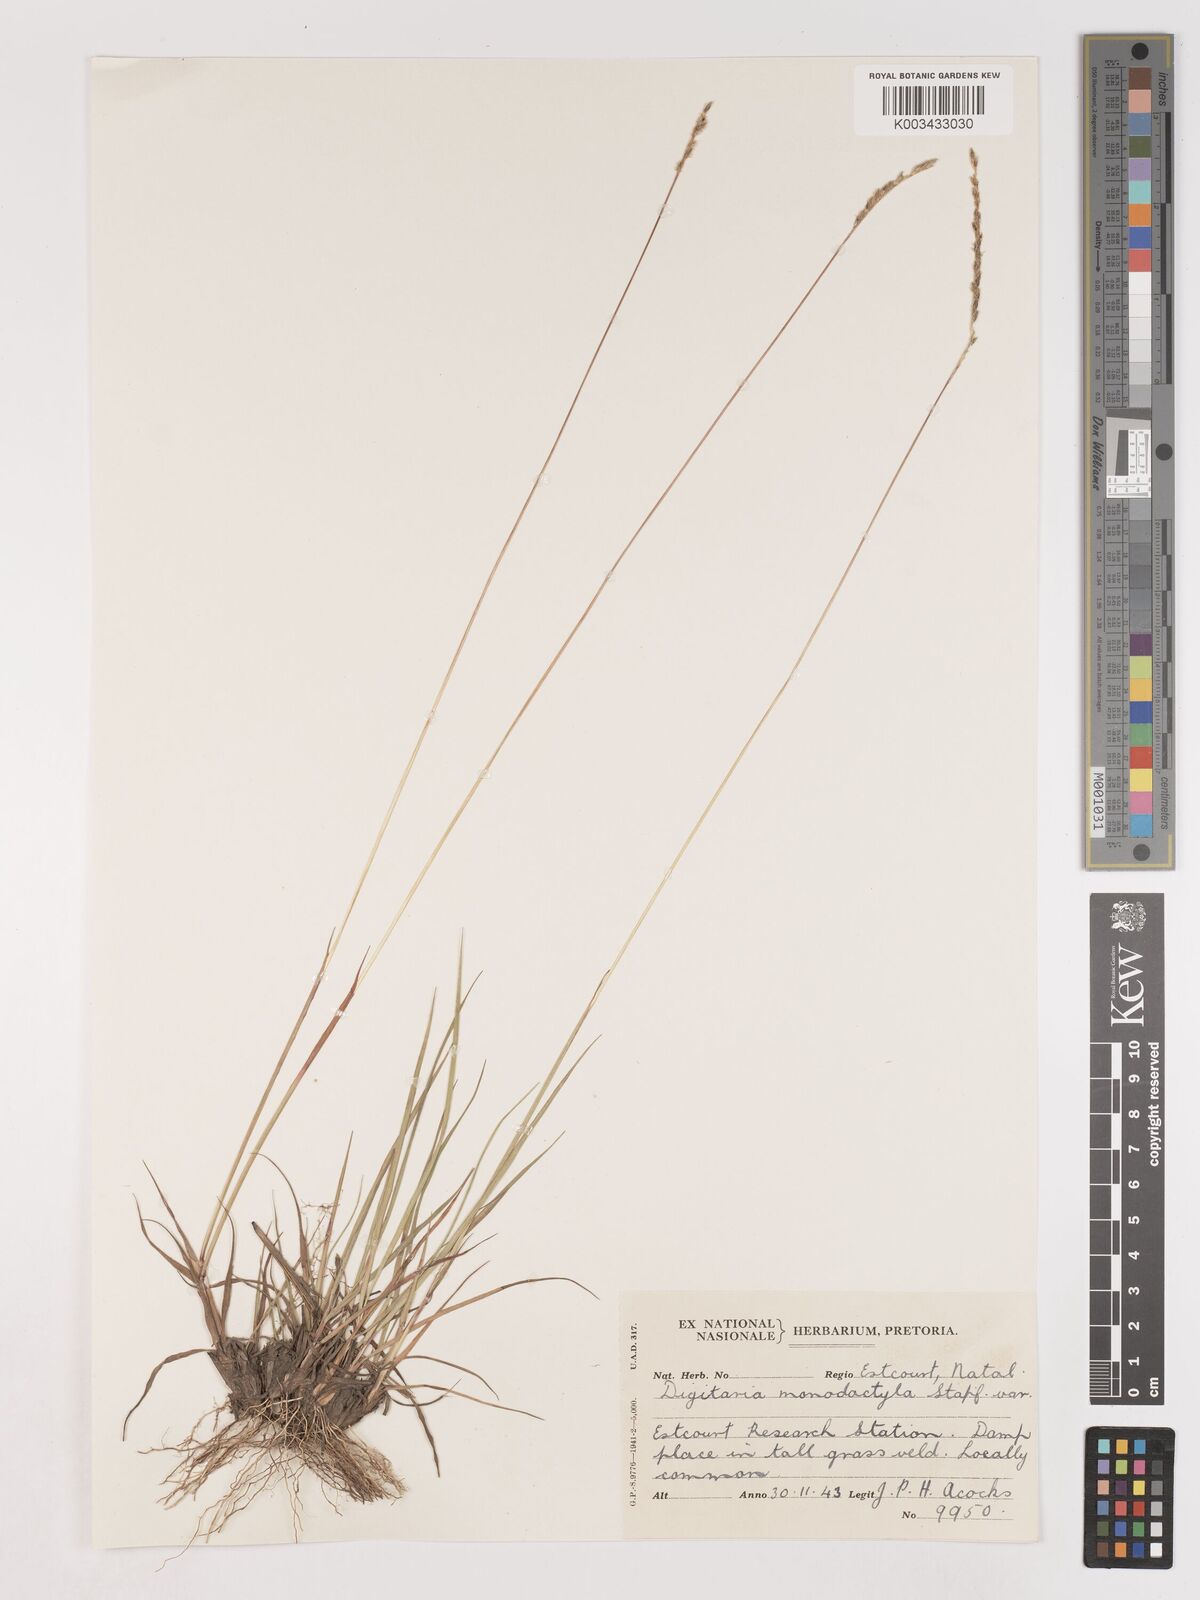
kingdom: Plantae
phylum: Tracheophyta
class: Liliopsida
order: Poales
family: Poaceae
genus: Digitaria
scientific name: Digitaria monodactyla
